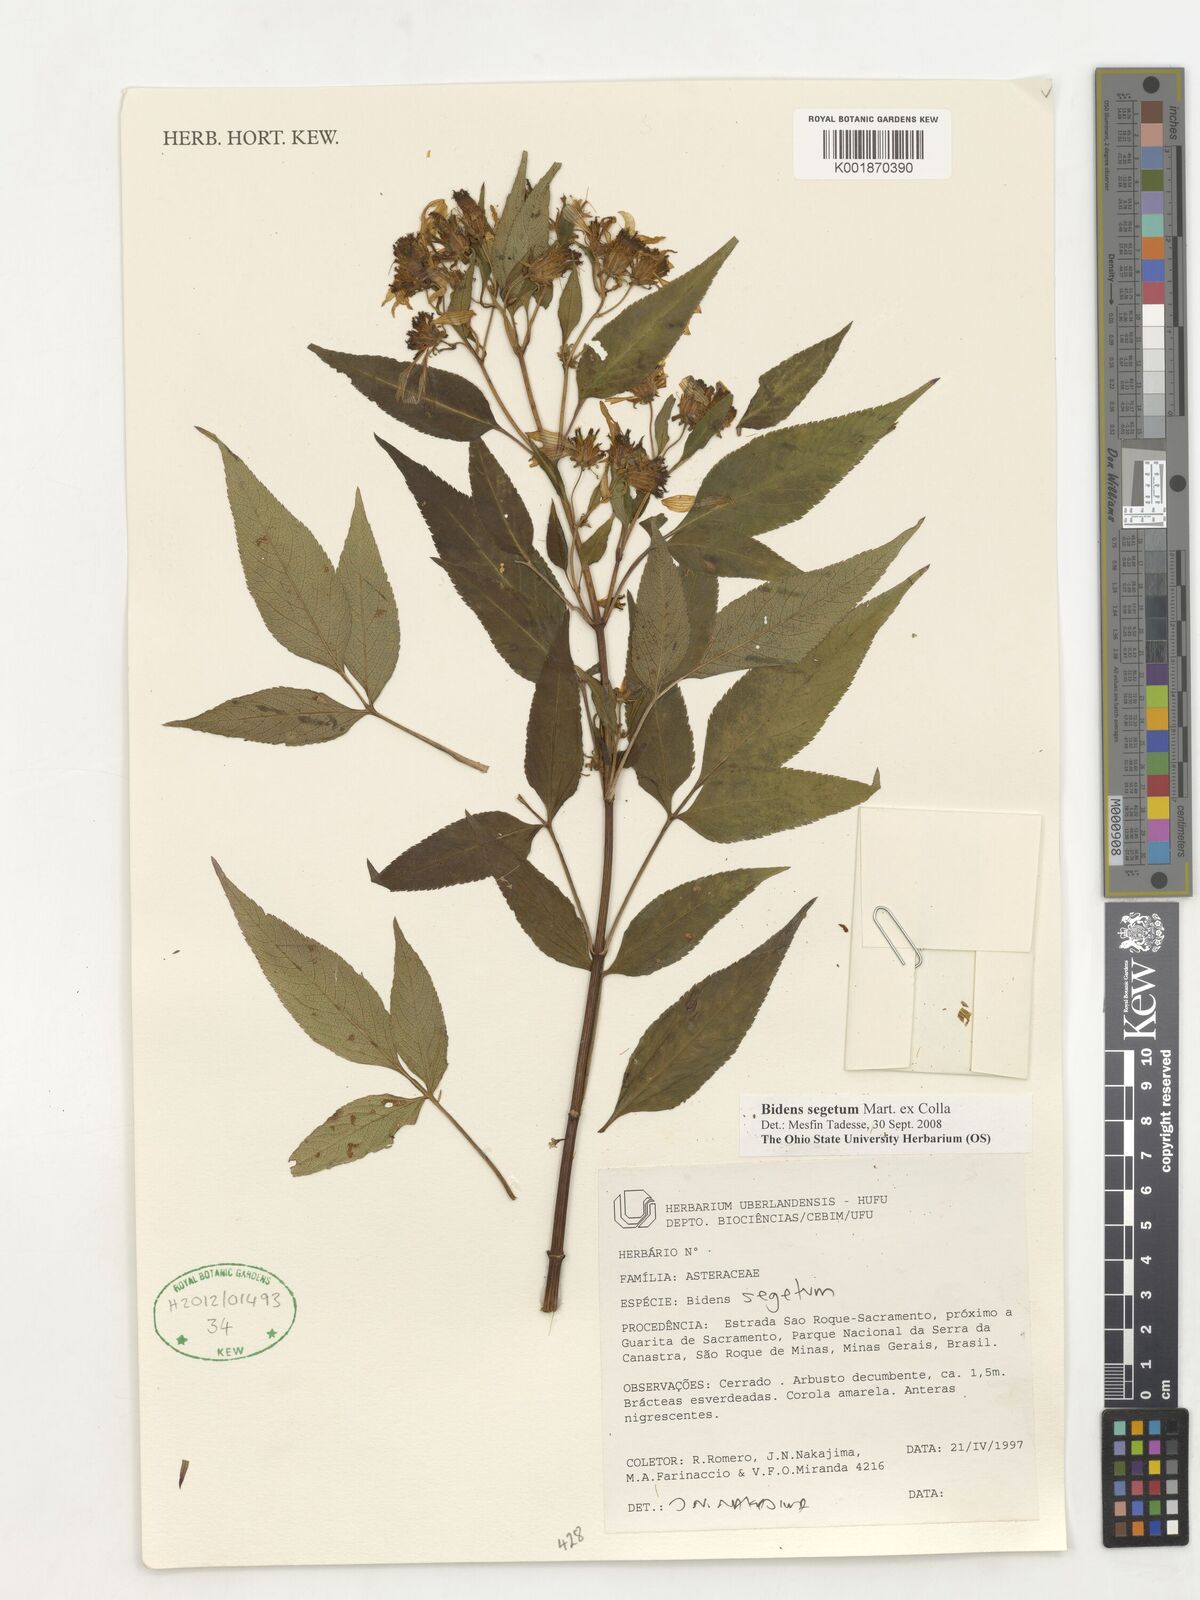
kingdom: Plantae
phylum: Tracheophyta
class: Magnoliopsida
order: Asterales
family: Asteraceae
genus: Bidens
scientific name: Bidens segetum
